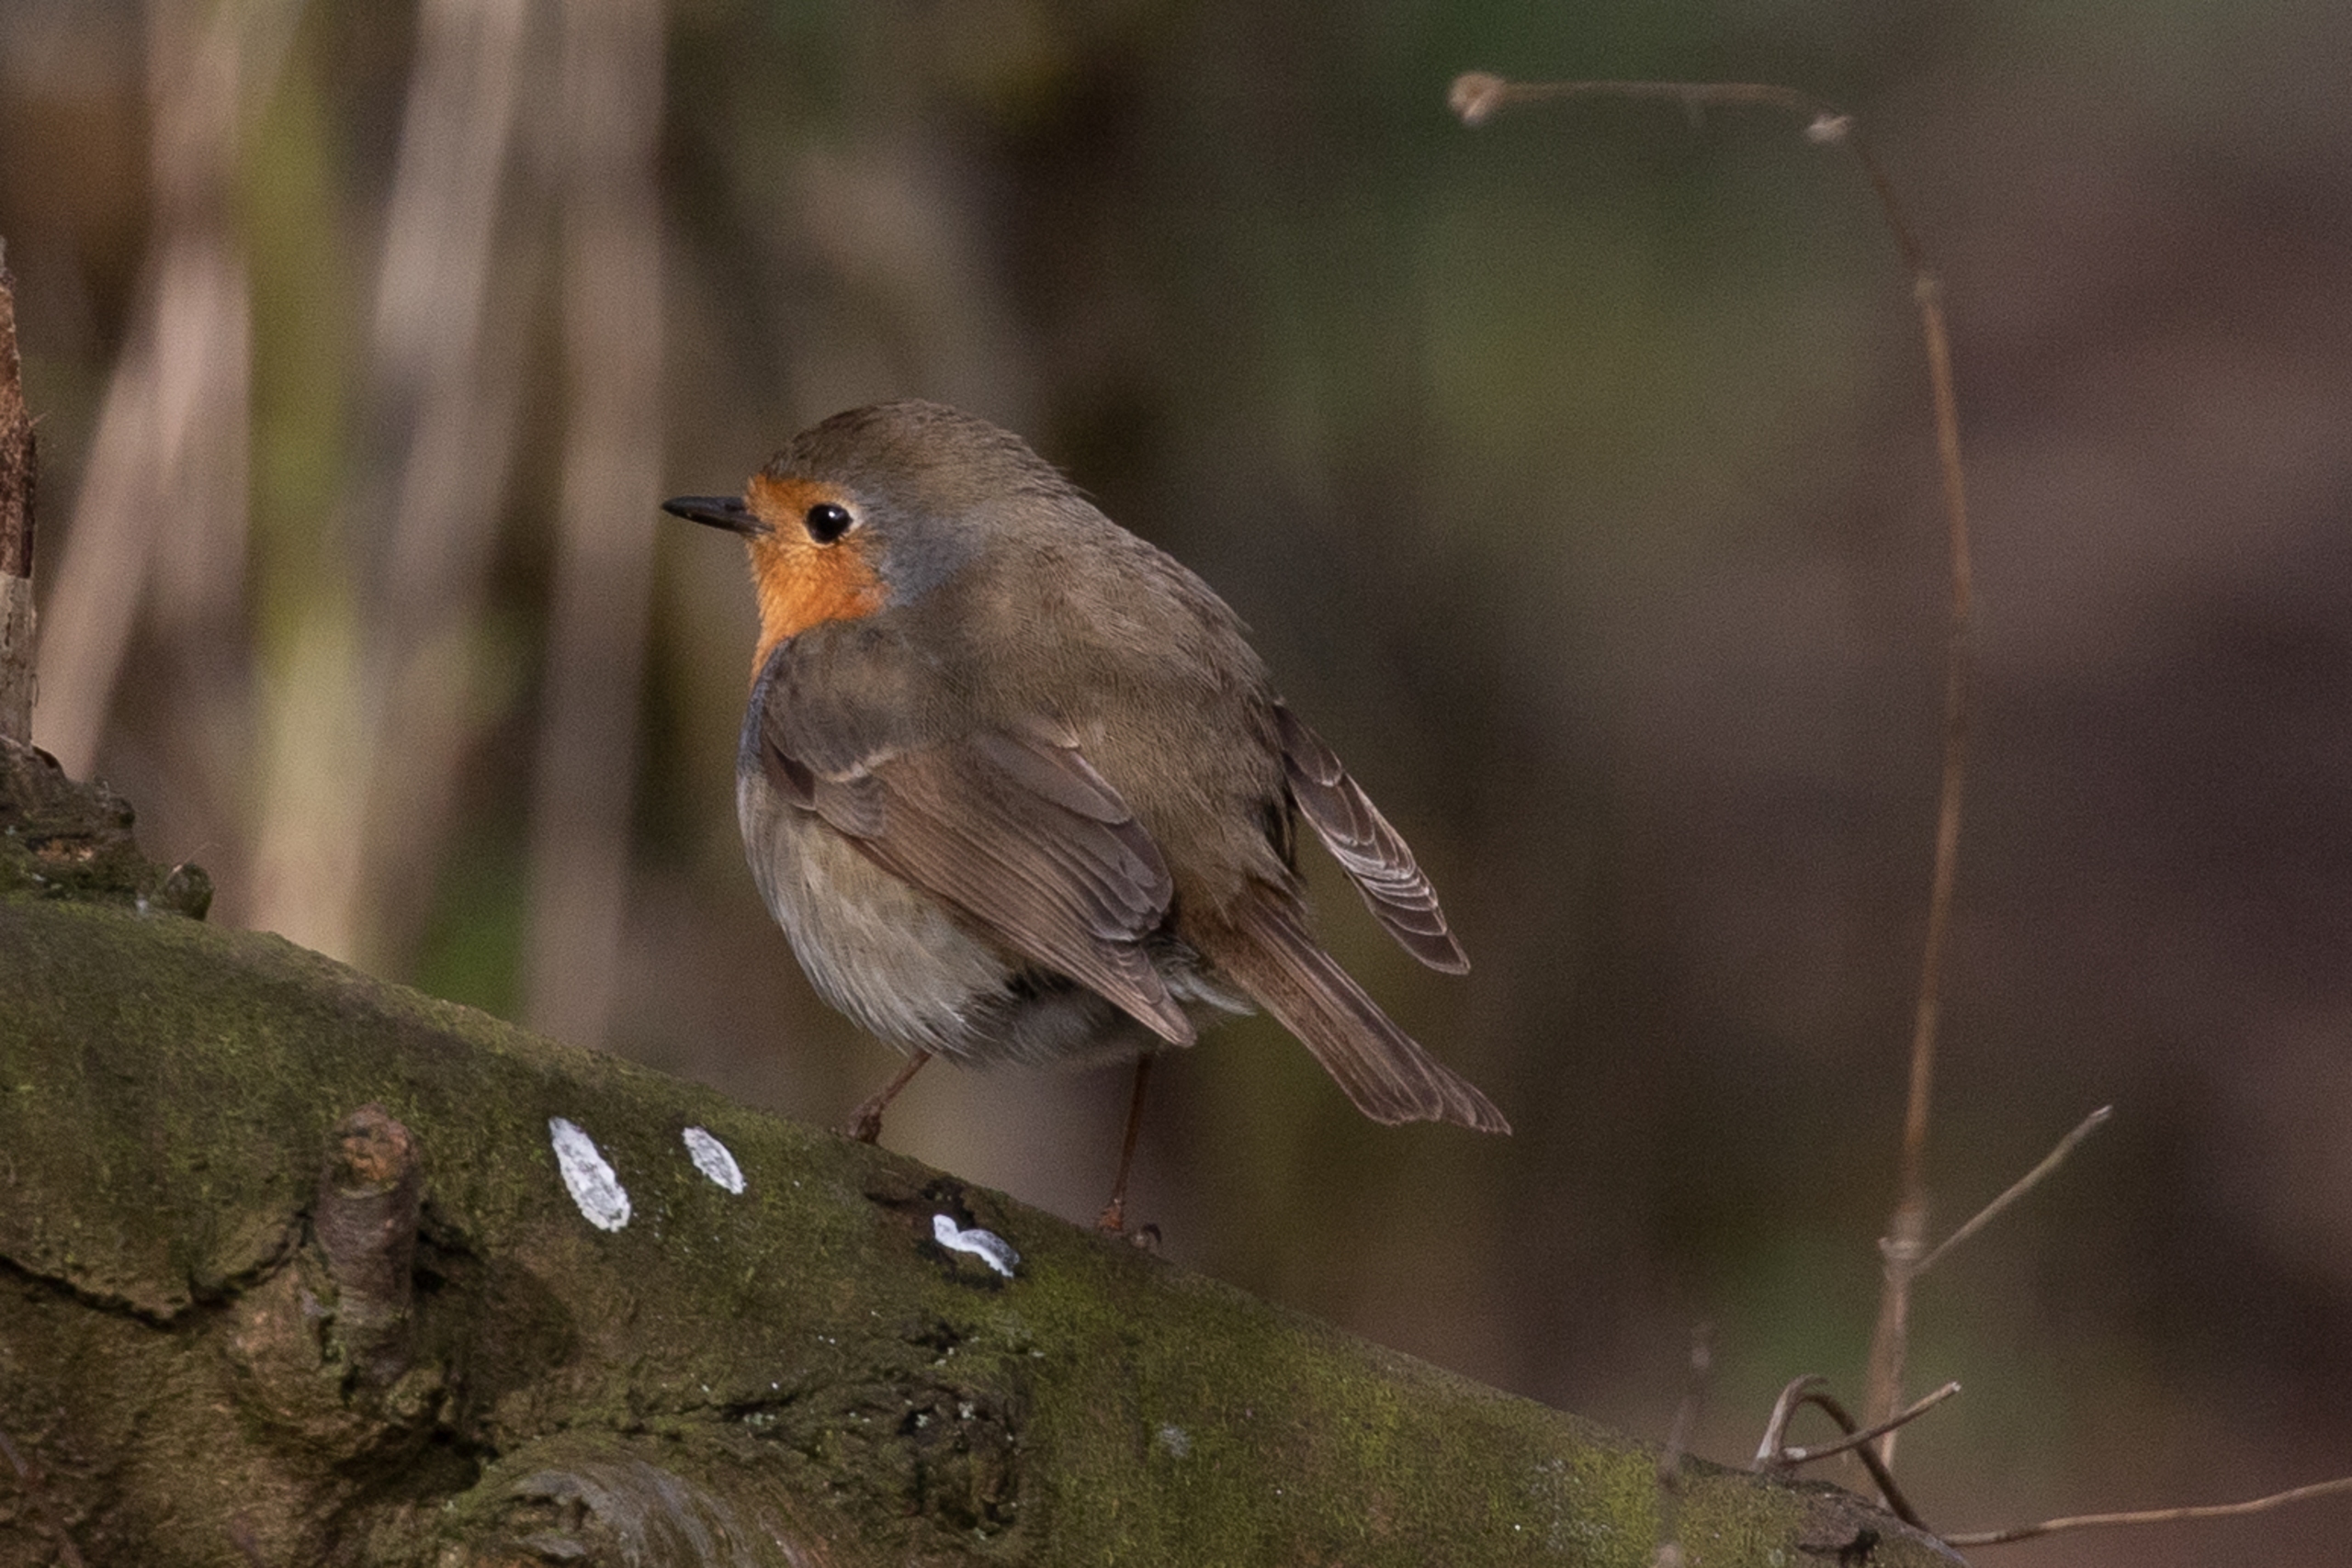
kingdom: Animalia
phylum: Chordata
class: Aves
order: Passeriformes
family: Muscicapidae
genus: Erithacus
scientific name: Erithacus rubecula
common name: Rødhals/rødkælk
